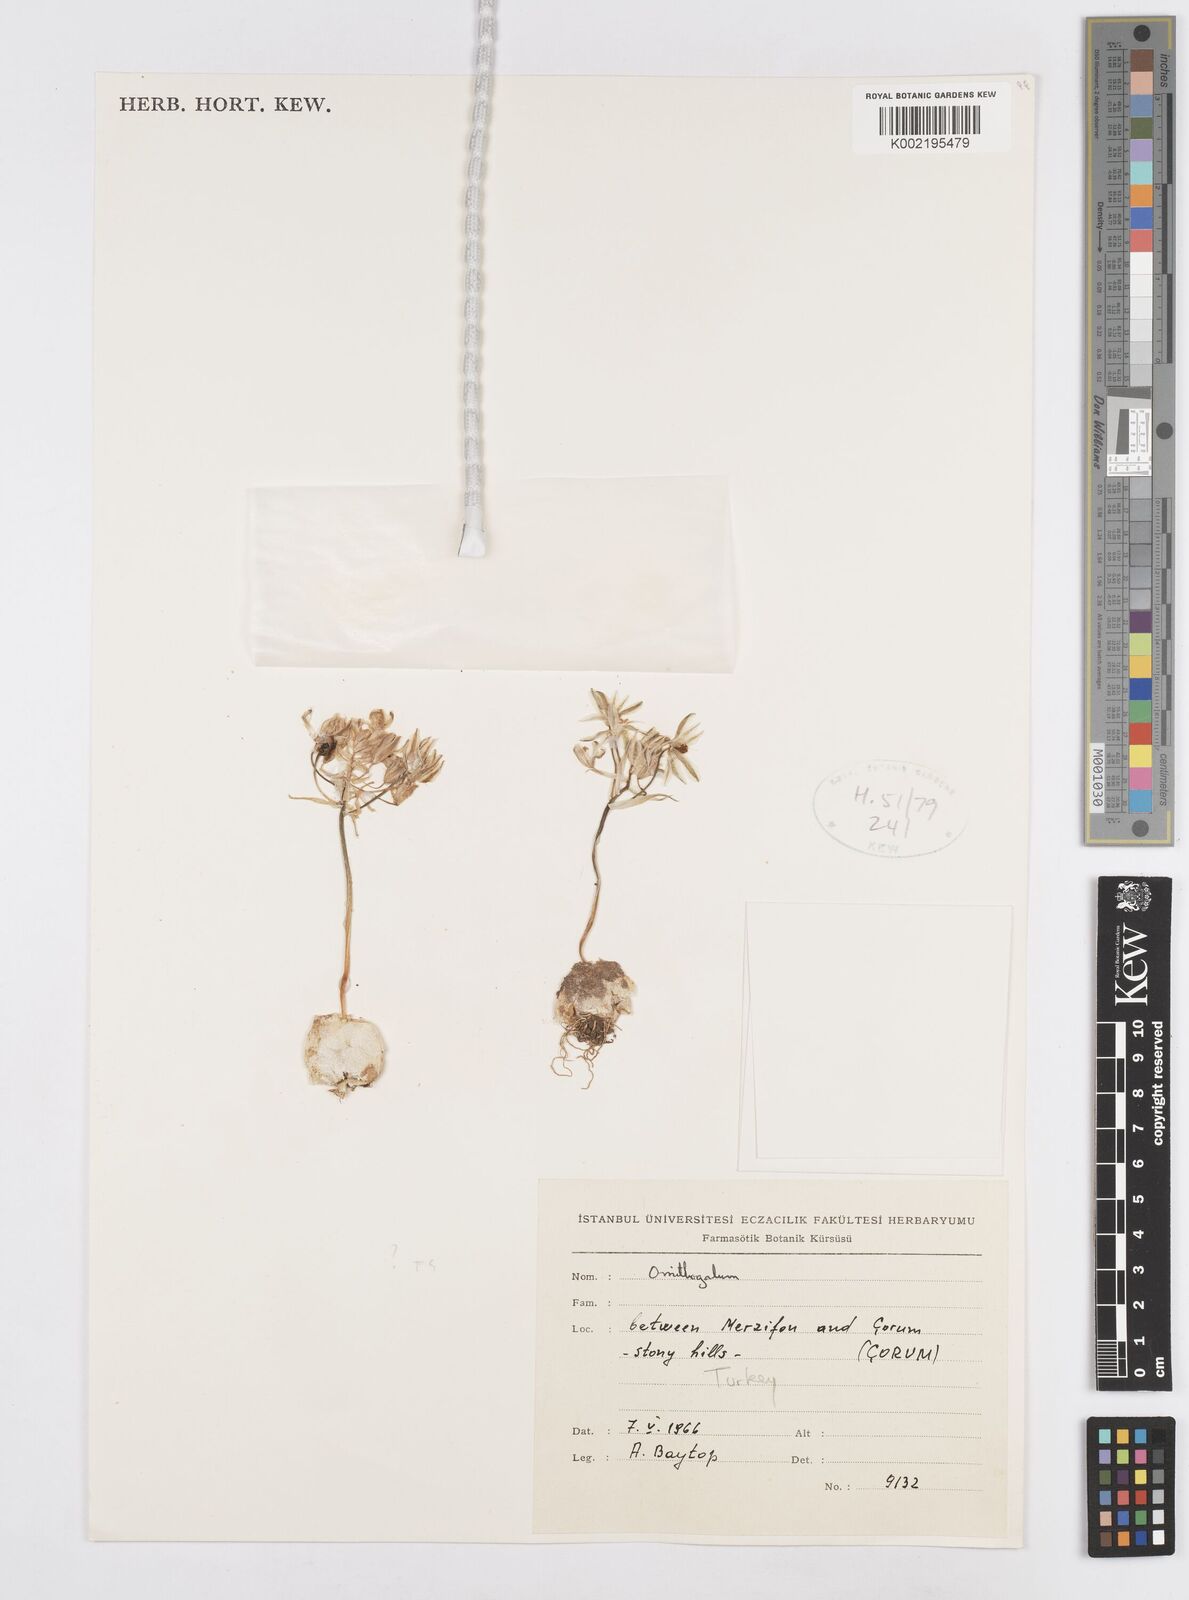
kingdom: Plantae
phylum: Tracheophyta
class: Liliopsida
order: Asparagales
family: Asparagaceae
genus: Ornithogalum
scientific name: Ornithogalum
